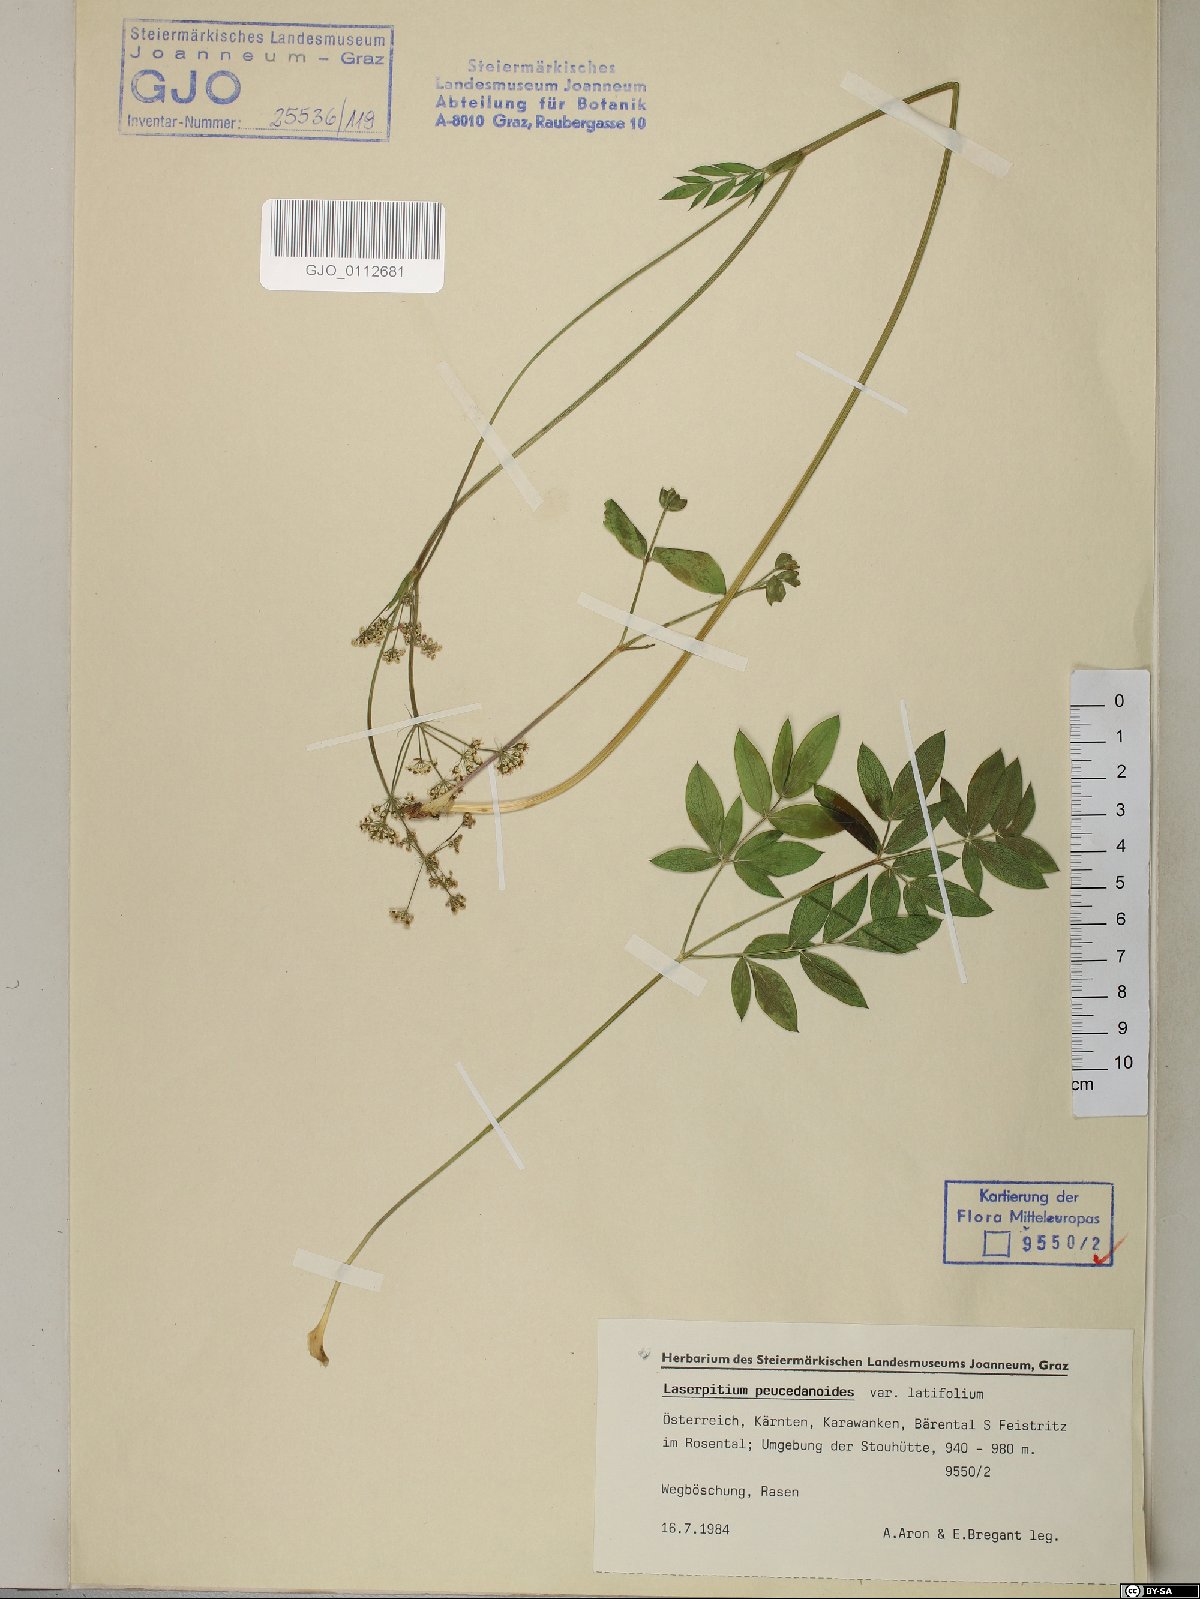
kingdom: Plantae
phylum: Tracheophyta
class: Magnoliopsida
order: Apiales
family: Apiaceae
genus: Laserpitium
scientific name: Laserpitium peucedanoides
